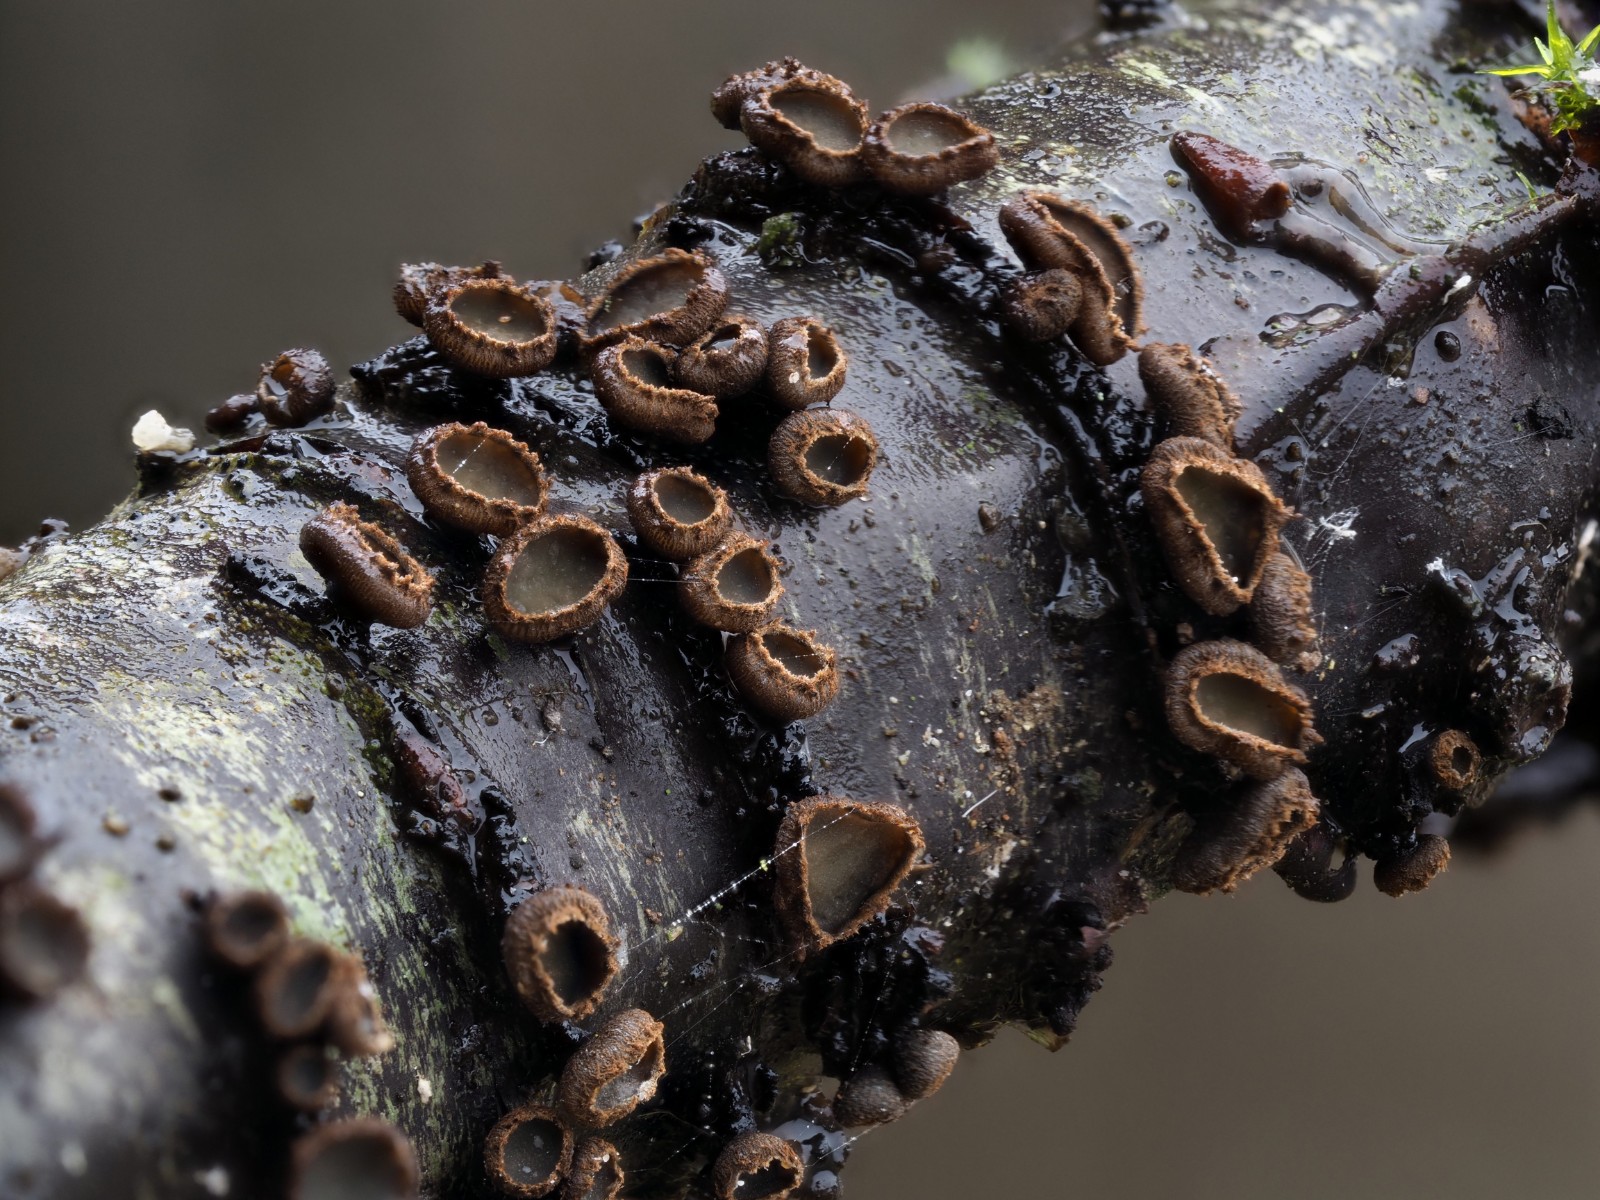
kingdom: Fungi
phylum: Ascomycota
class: Leotiomycetes
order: Helotiales
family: Godroniaceae
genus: Godronia
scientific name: Godronia uberiformis
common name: solbær-urneskive
